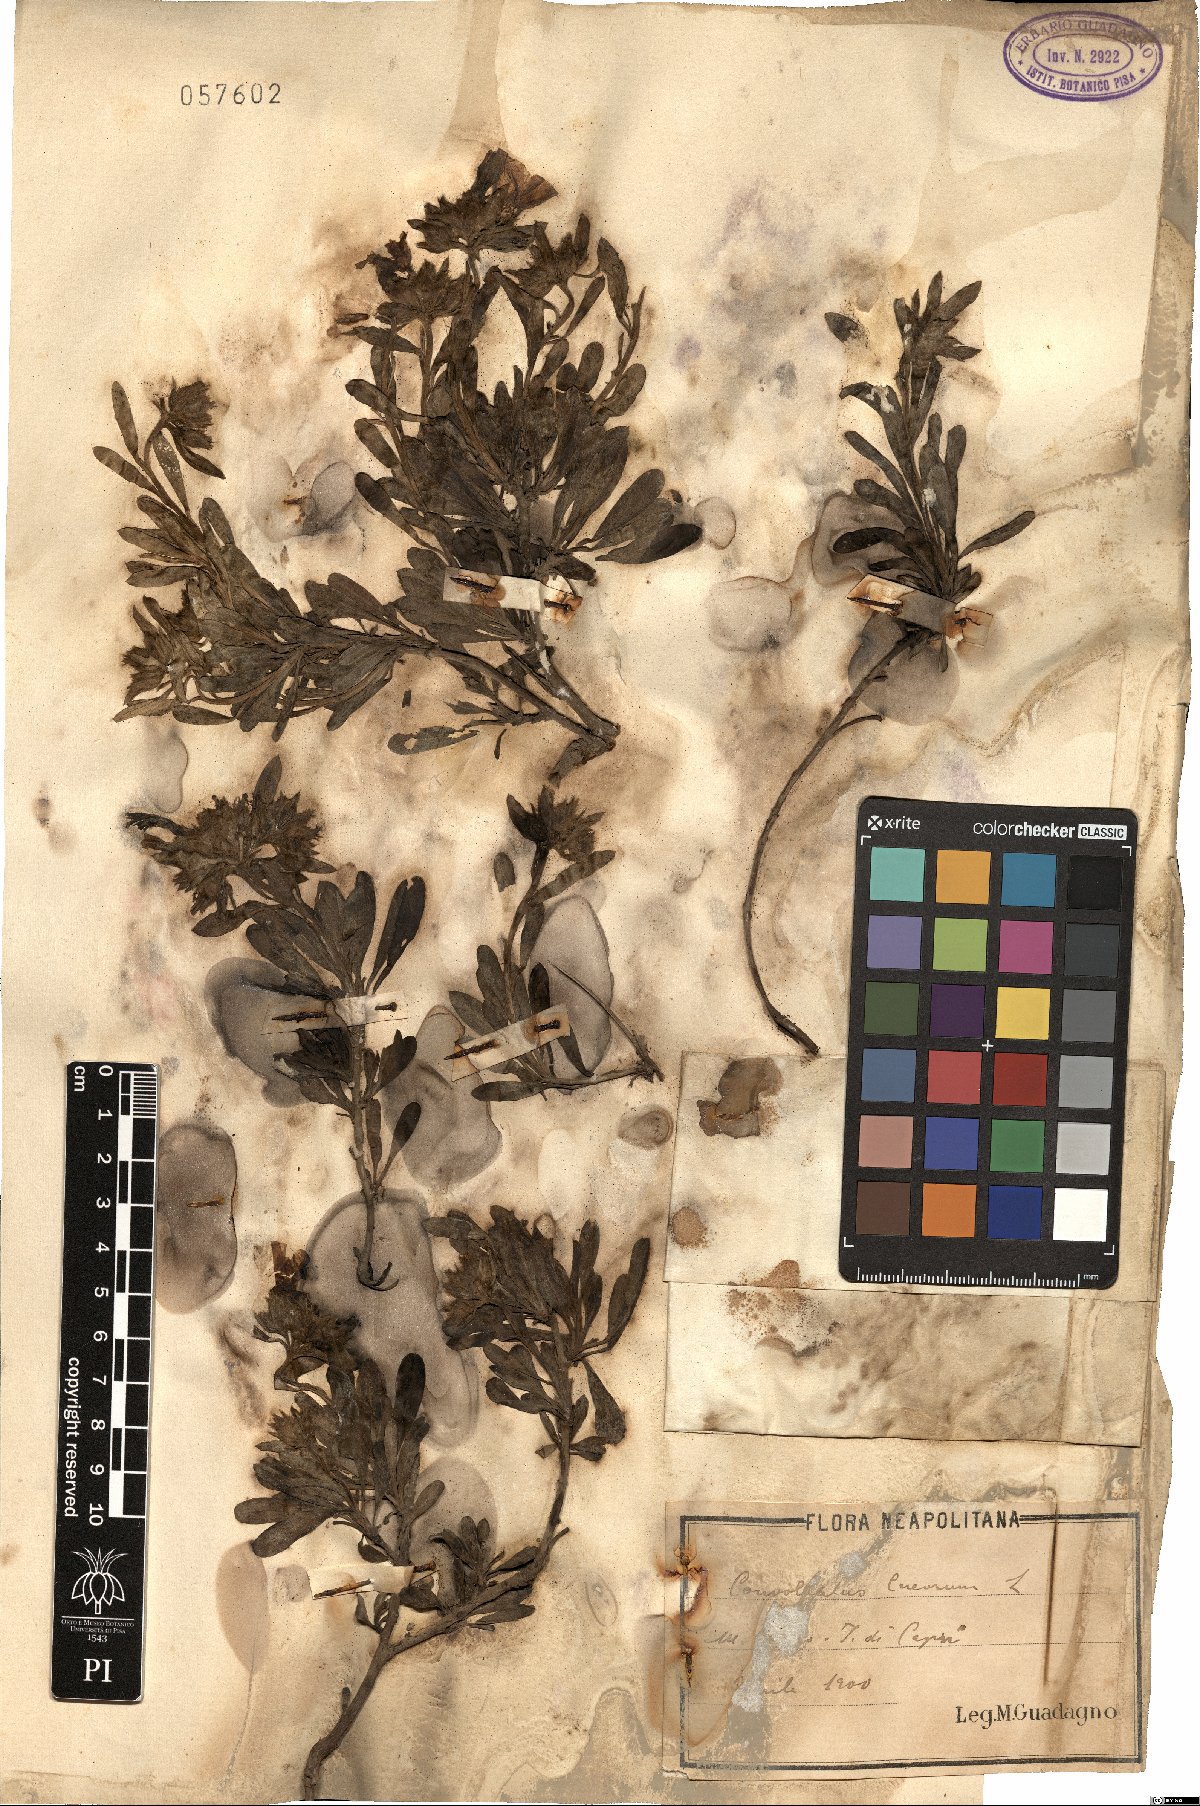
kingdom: Plantae
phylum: Tracheophyta
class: Magnoliopsida
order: Solanales
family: Convolvulaceae
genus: Convolvulus
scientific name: Convolvulus cneorum
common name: Silverbush
